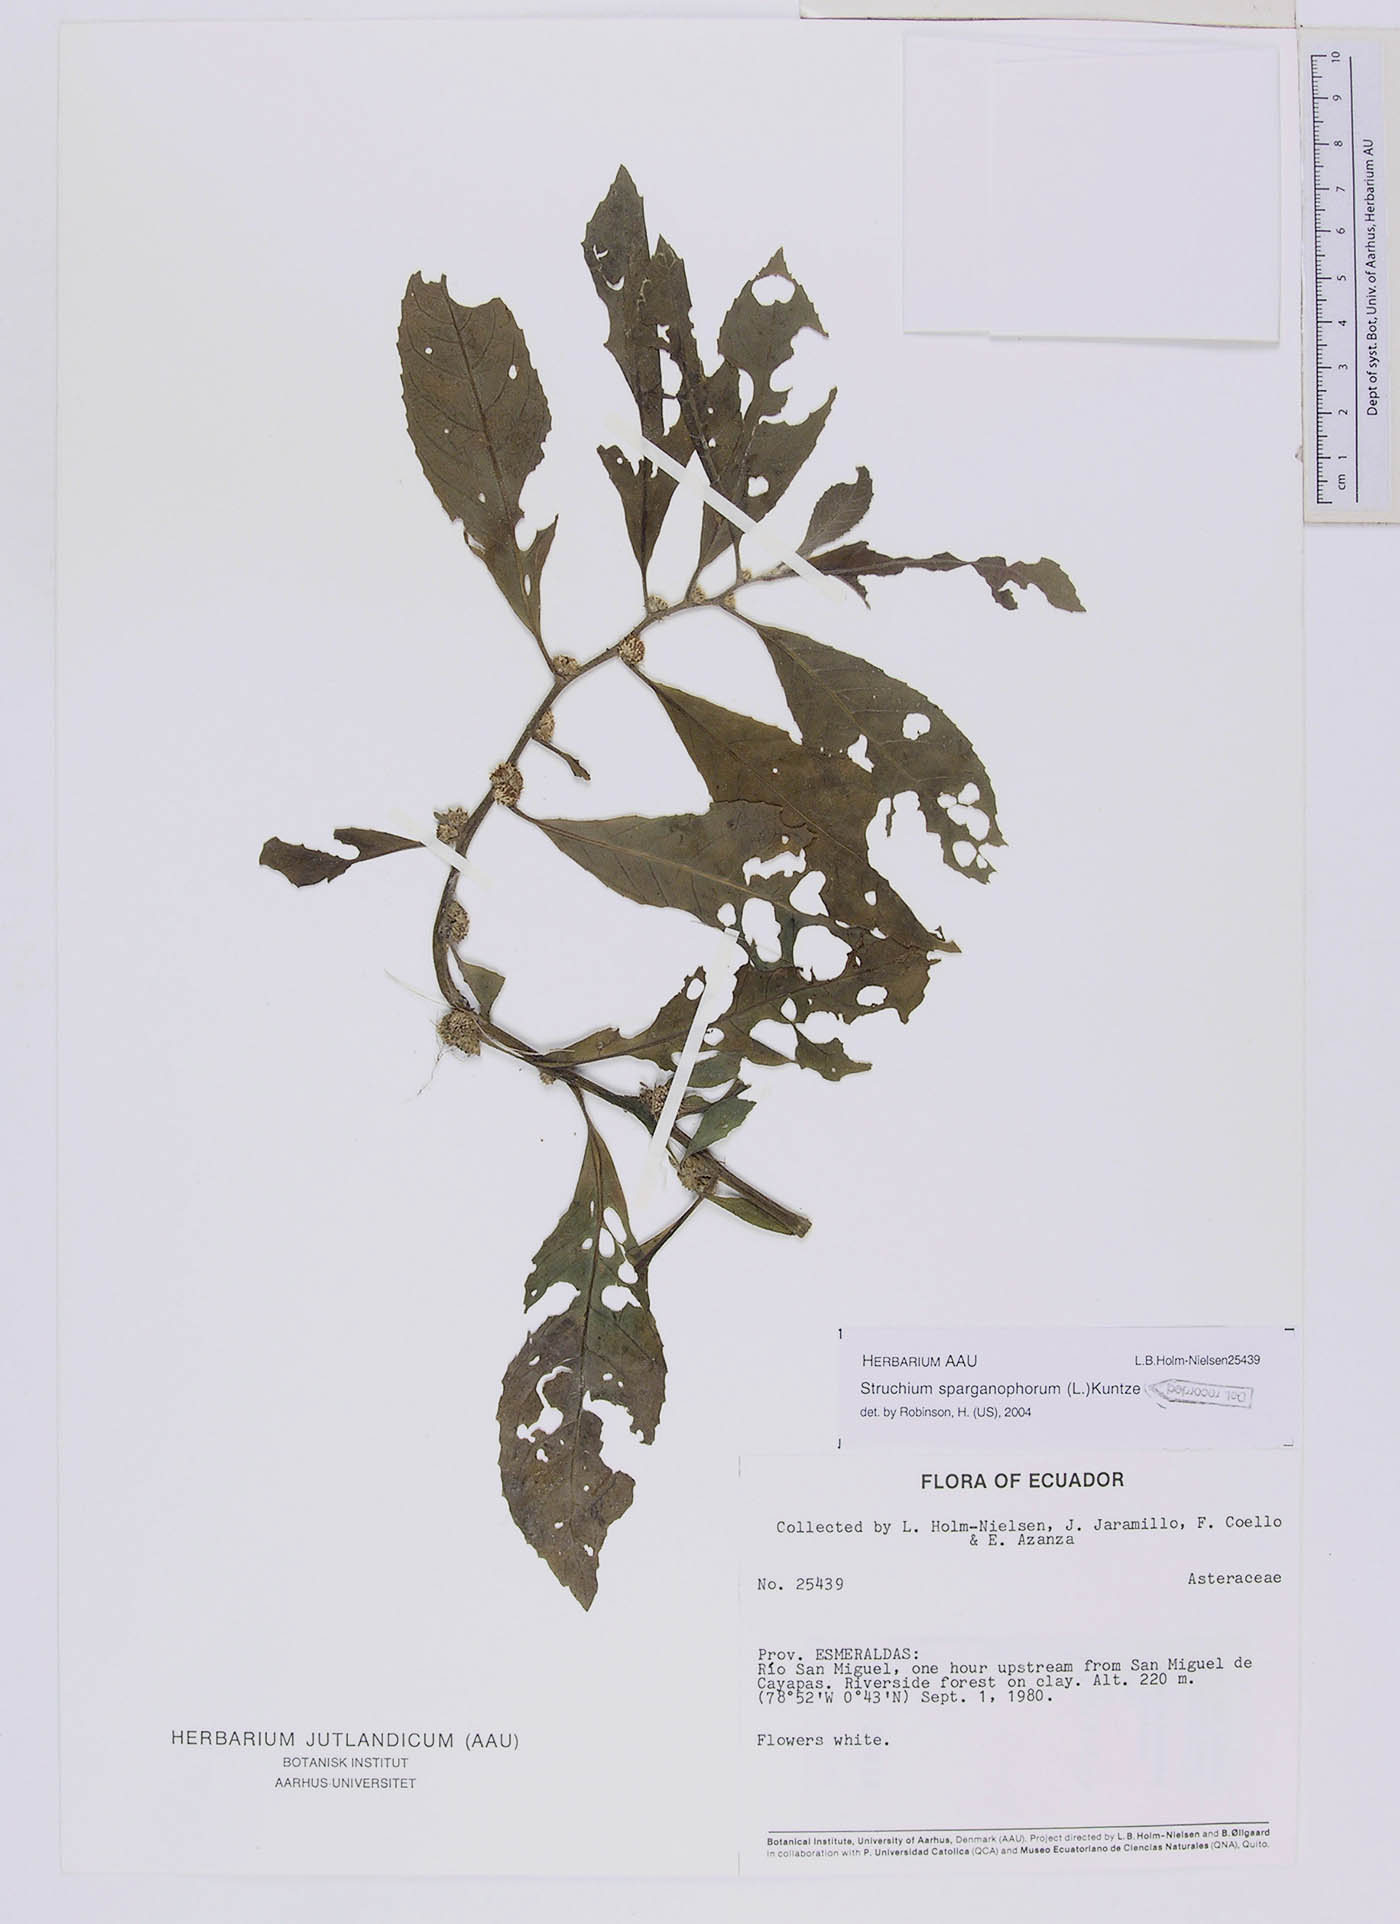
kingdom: Plantae
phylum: Tracheophyta
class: Magnoliopsida
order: Asterales
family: Asteraceae
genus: Struchium
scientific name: Struchium sparganophorum
